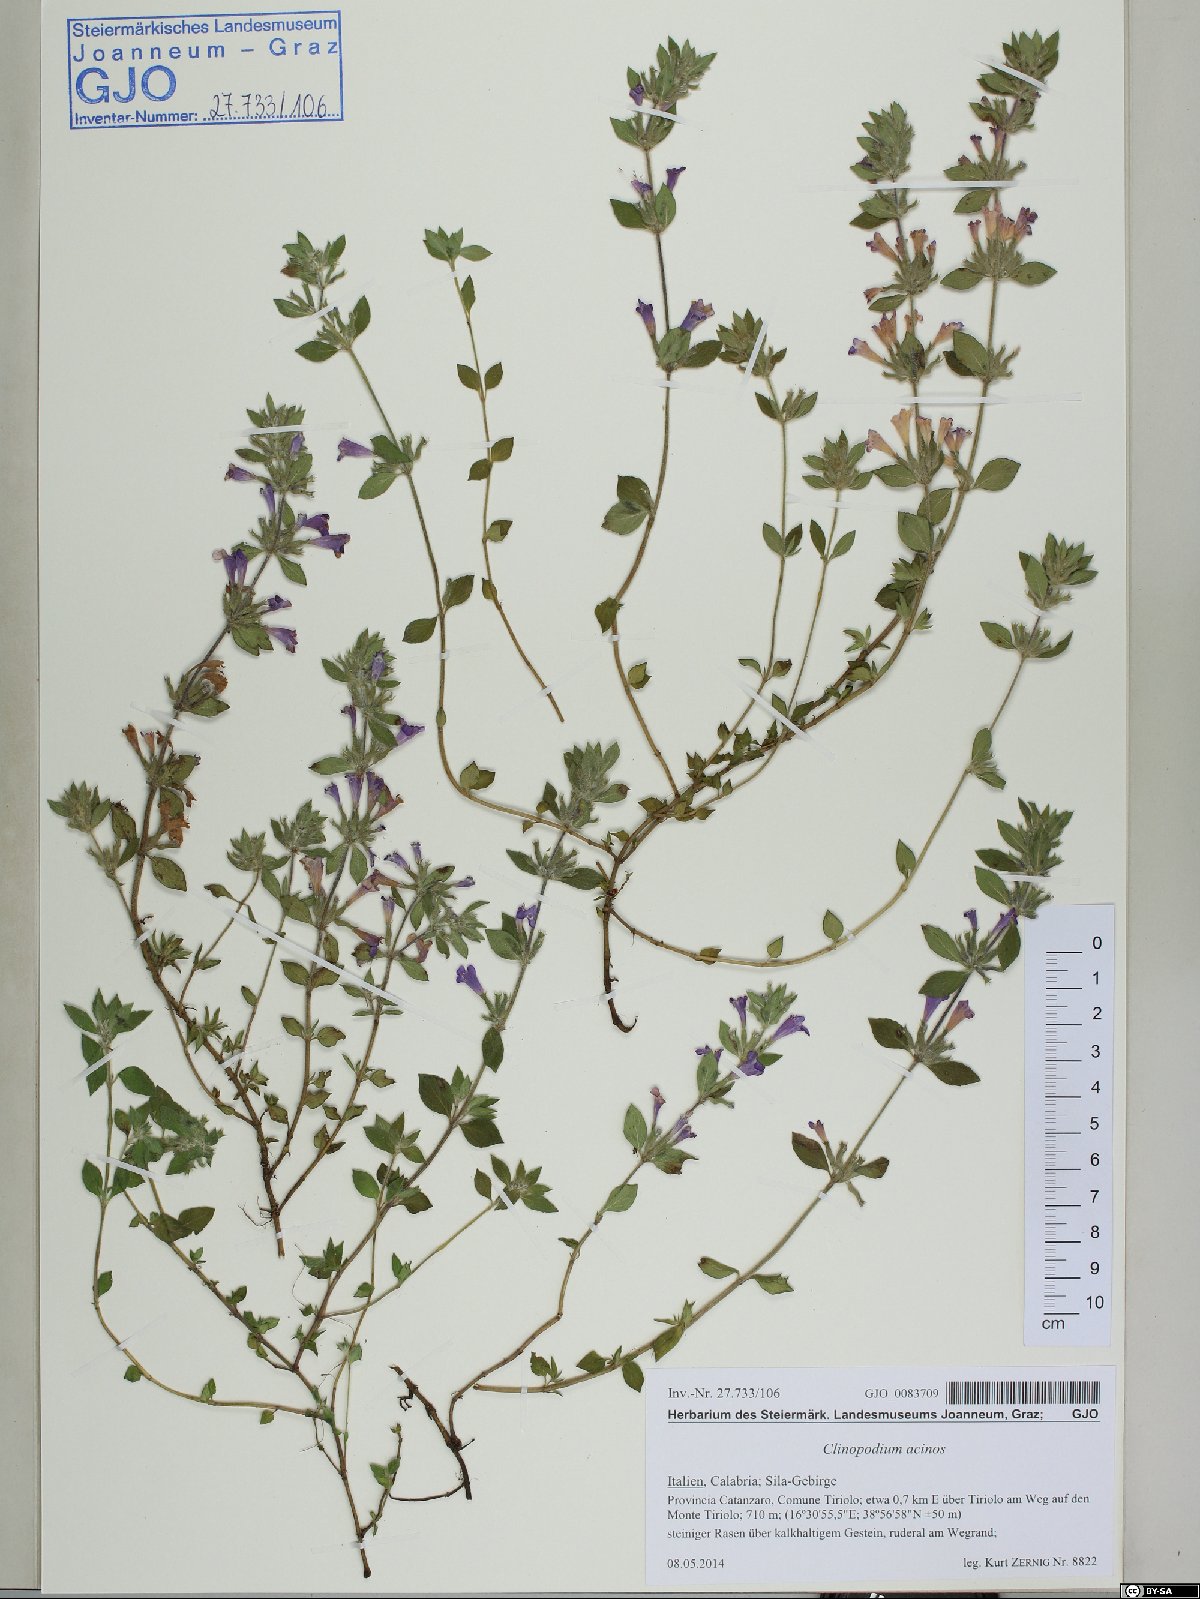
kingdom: Plantae
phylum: Tracheophyta
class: Magnoliopsida
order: Lamiales
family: Lamiaceae
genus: Clinopodium
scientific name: Clinopodium acinos
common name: Basil thyme
